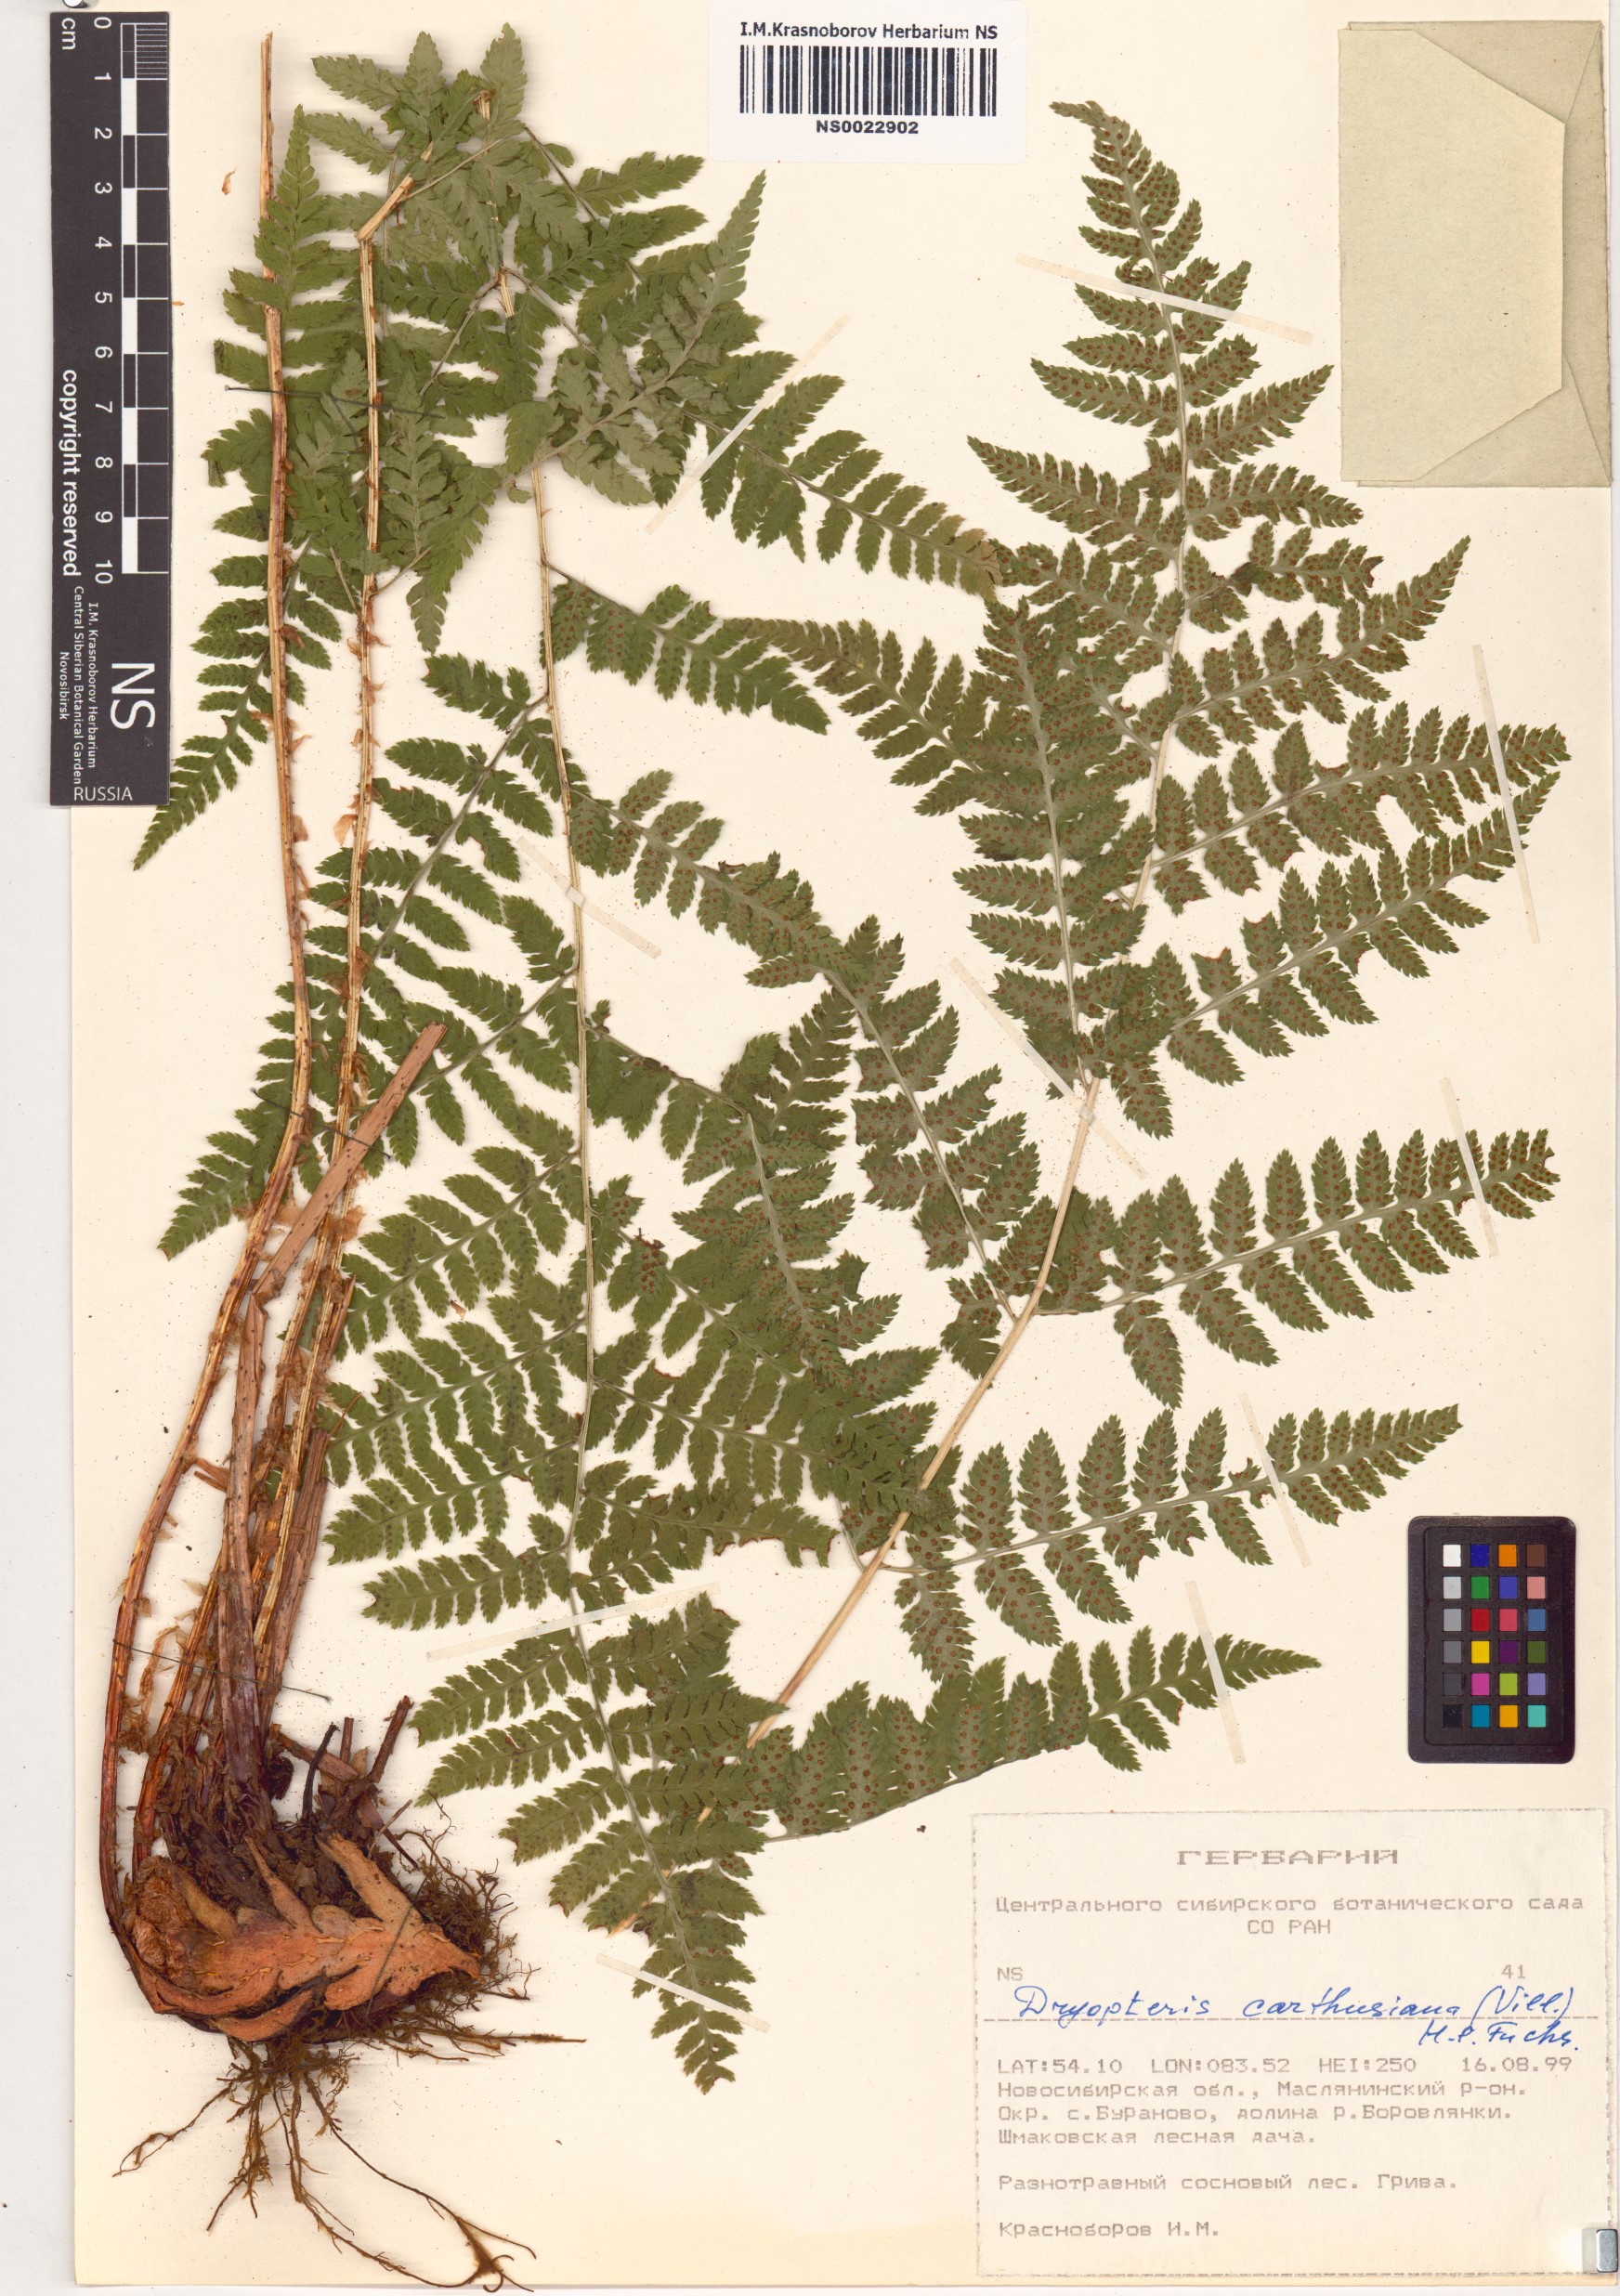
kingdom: Plantae
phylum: Tracheophyta
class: Polypodiopsida
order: Polypodiales
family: Dryopteridaceae
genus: Dryopteris
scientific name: Dryopteris carthusiana
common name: Narrow buckler-fern
